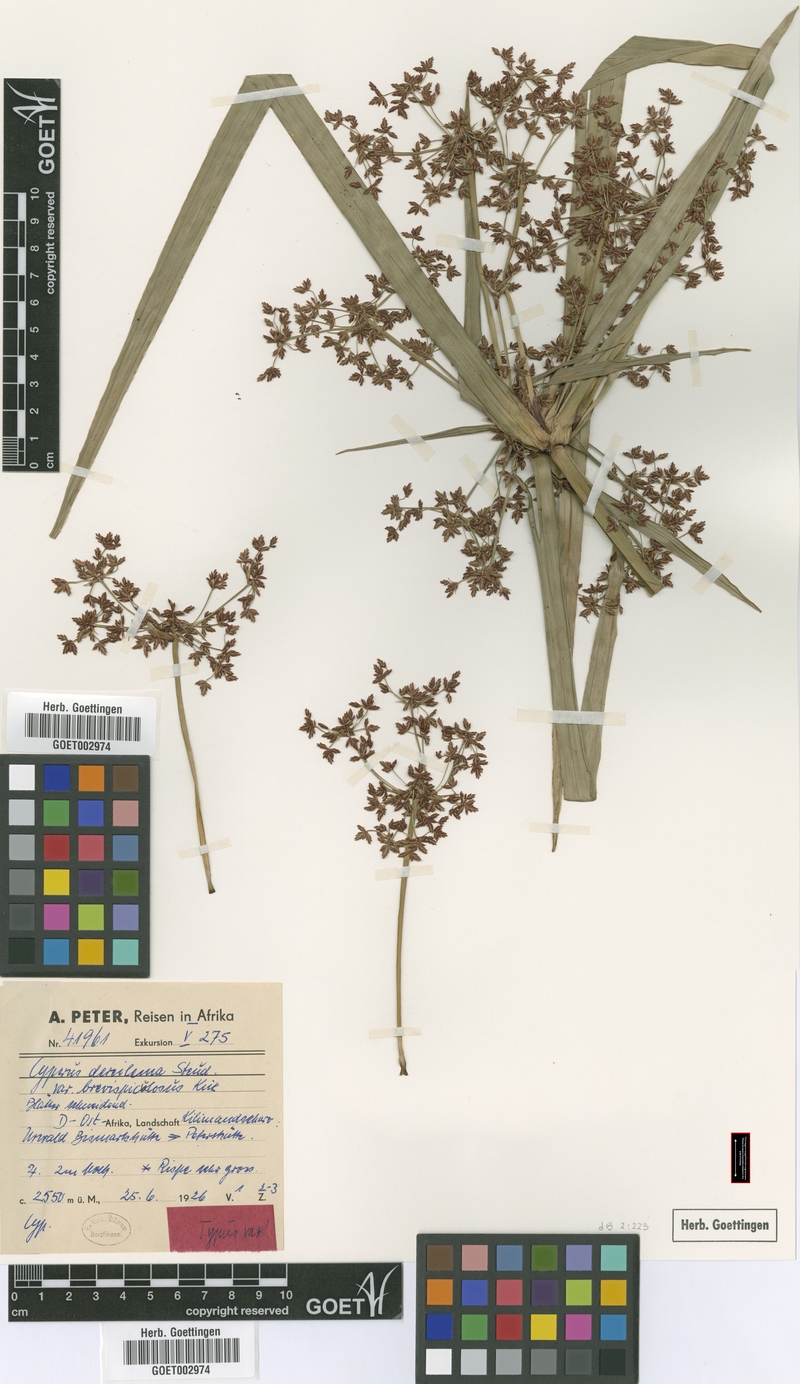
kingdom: Plantae
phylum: Tracheophyta
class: Liliopsida
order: Poales
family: Cyperaceae
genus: Cyperus
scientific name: Cyperus derreilema
